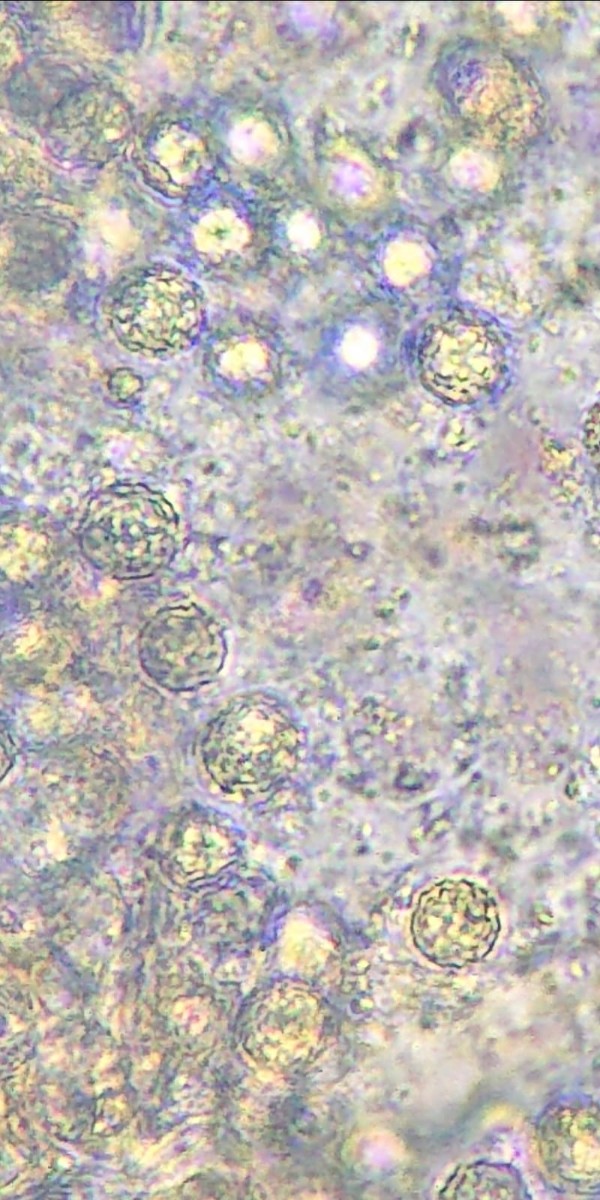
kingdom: Fungi
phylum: Basidiomycota
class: Agaricomycetes
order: Agaricales
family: Hydnangiaceae
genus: Laccaria
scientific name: Laccaria proxima
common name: stor ametysthat
